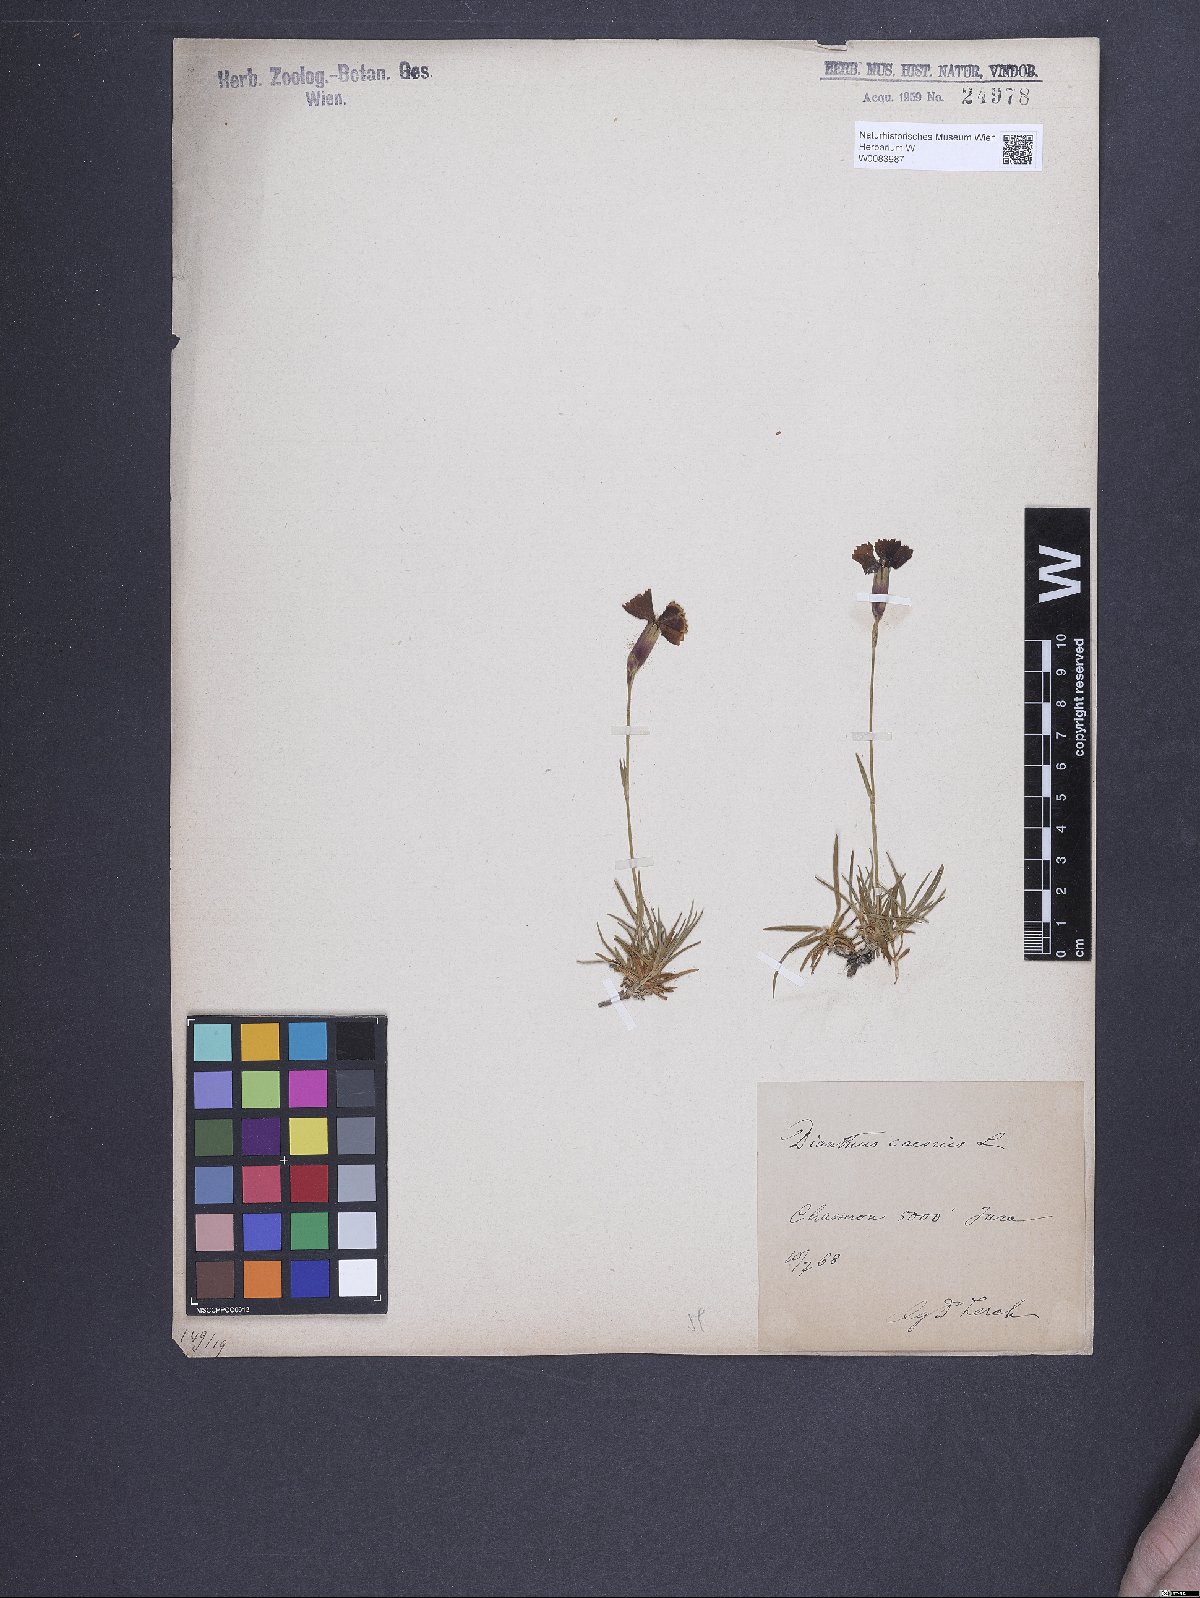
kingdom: Plantae
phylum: Tracheophyta
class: Magnoliopsida
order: Caryophyllales
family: Caryophyllaceae
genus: Dianthus
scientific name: Dianthus gratianopolitanus
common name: Cheddar pink
